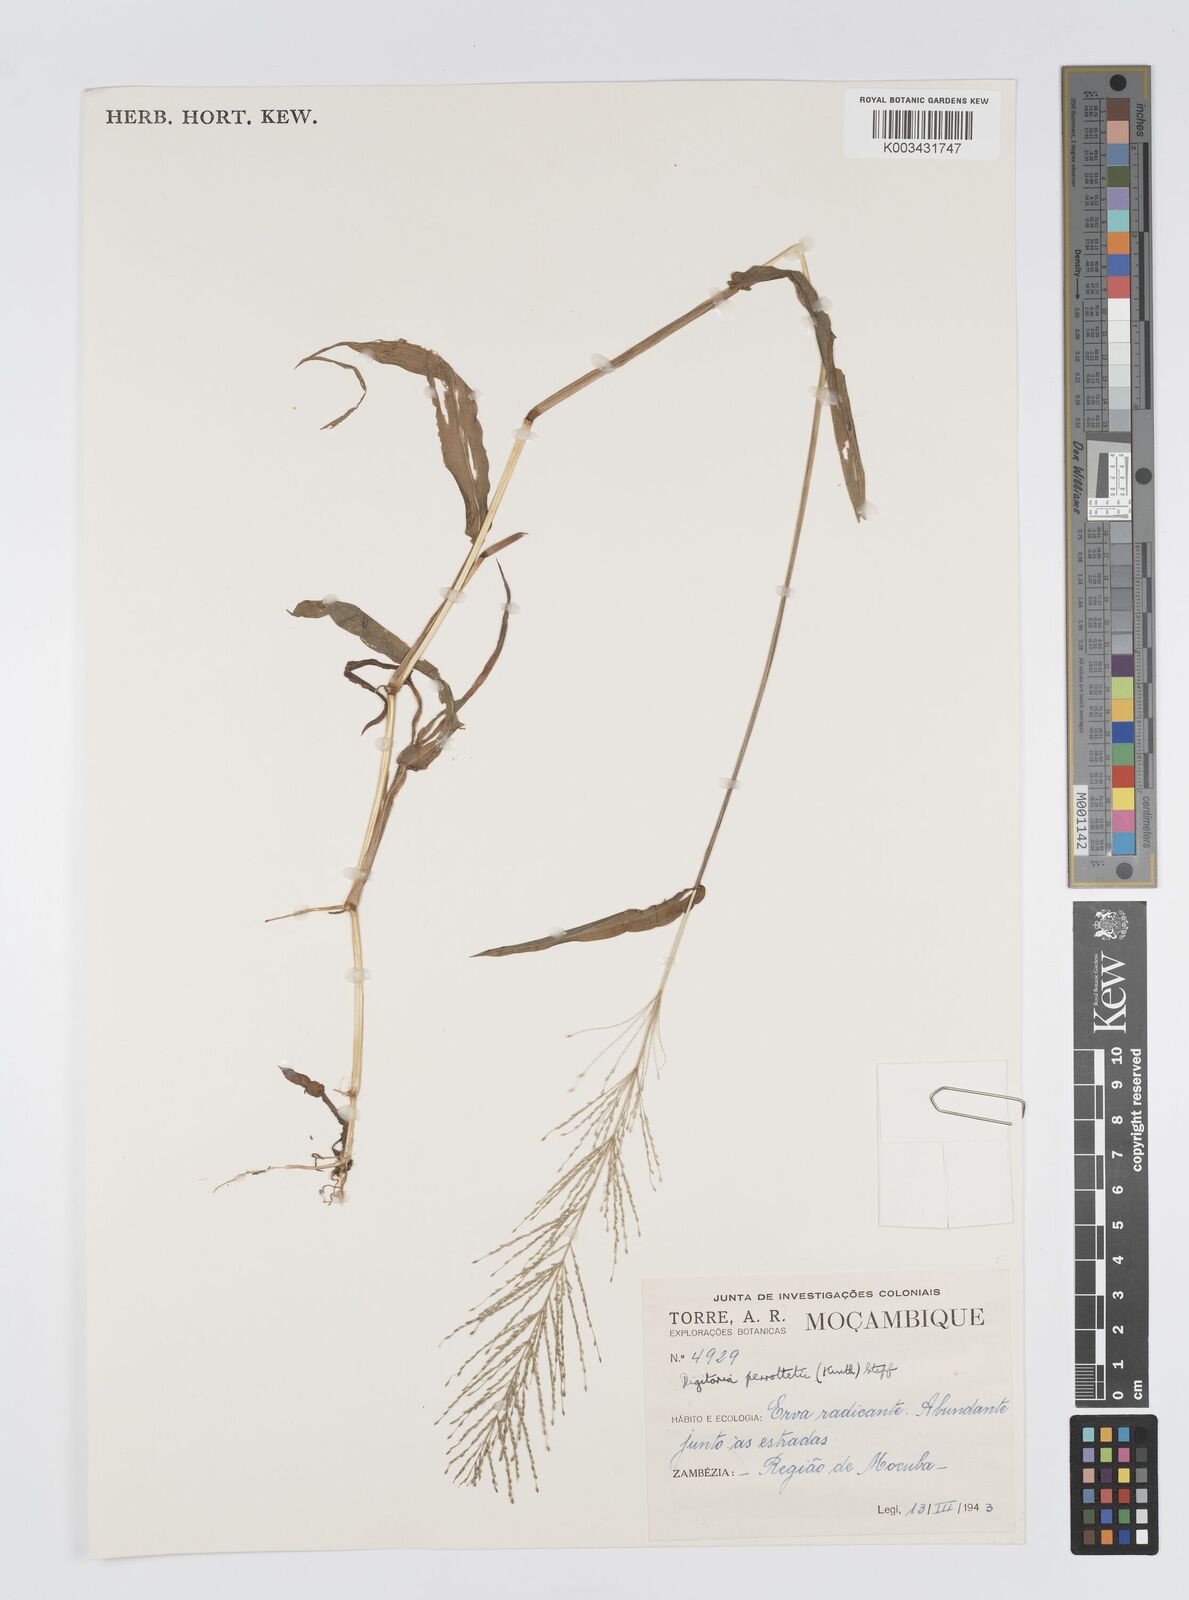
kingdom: Plantae
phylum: Tracheophyta
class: Liliopsida
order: Poales
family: Poaceae
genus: Digitaria
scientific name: Digitaria perrottetii
